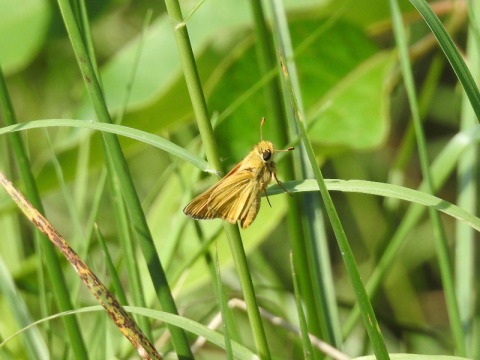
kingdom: Animalia
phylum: Arthropoda
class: Insecta
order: Lepidoptera
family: Hesperiidae
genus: Atalopedes
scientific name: Atalopedes campestris
